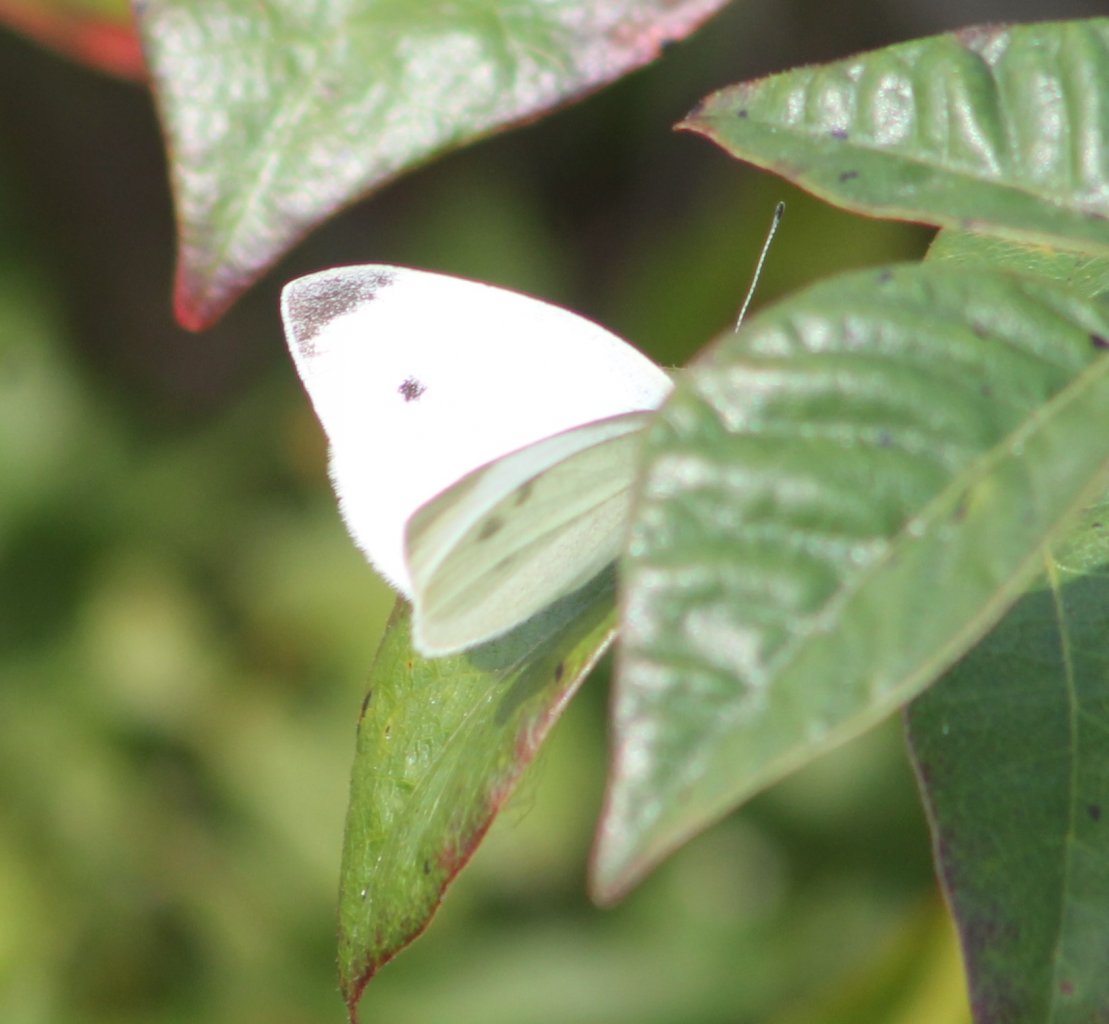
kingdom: Animalia
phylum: Arthropoda
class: Insecta
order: Lepidoptera
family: Pieridae
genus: Pieris
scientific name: Pieris rapae
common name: Cabbage White
